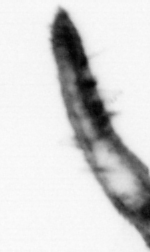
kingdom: Animalia
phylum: Annelida
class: Polychaeta
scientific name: Polychaeta
